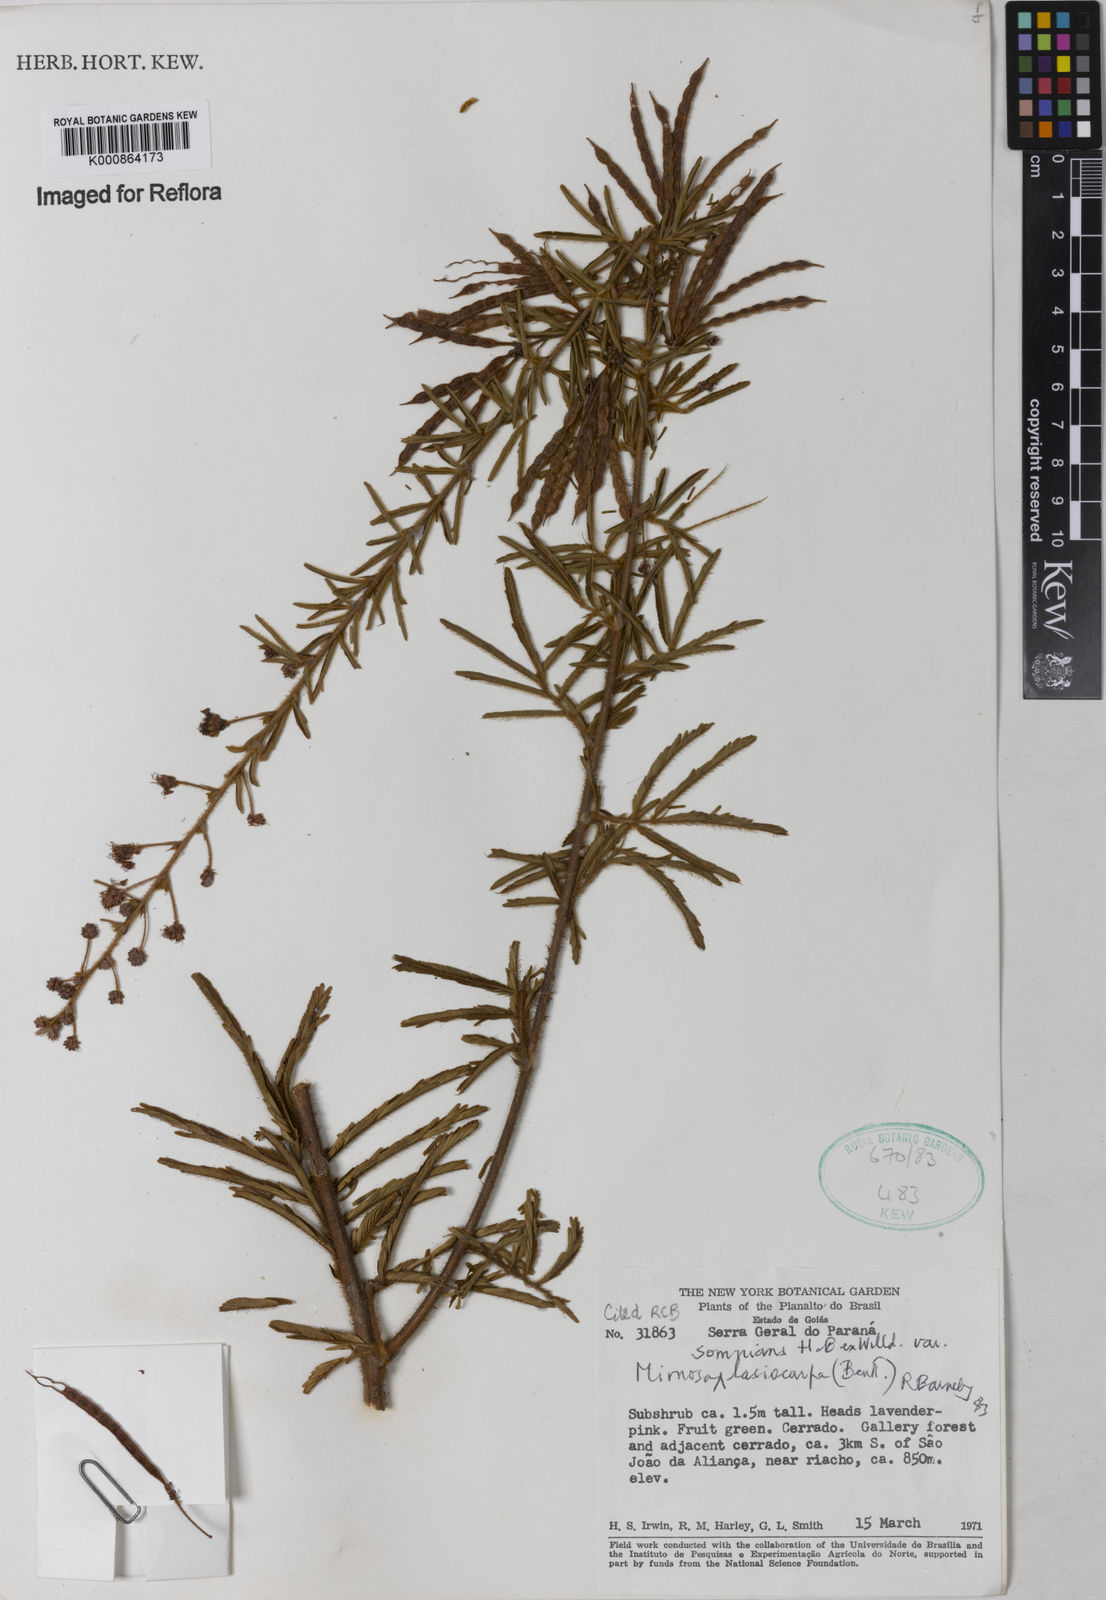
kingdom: Plantae
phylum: Tracheophyta
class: Magnoliopsida
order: Fabales
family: Fabaceae
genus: Mimosa
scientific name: Mimosa somnians
